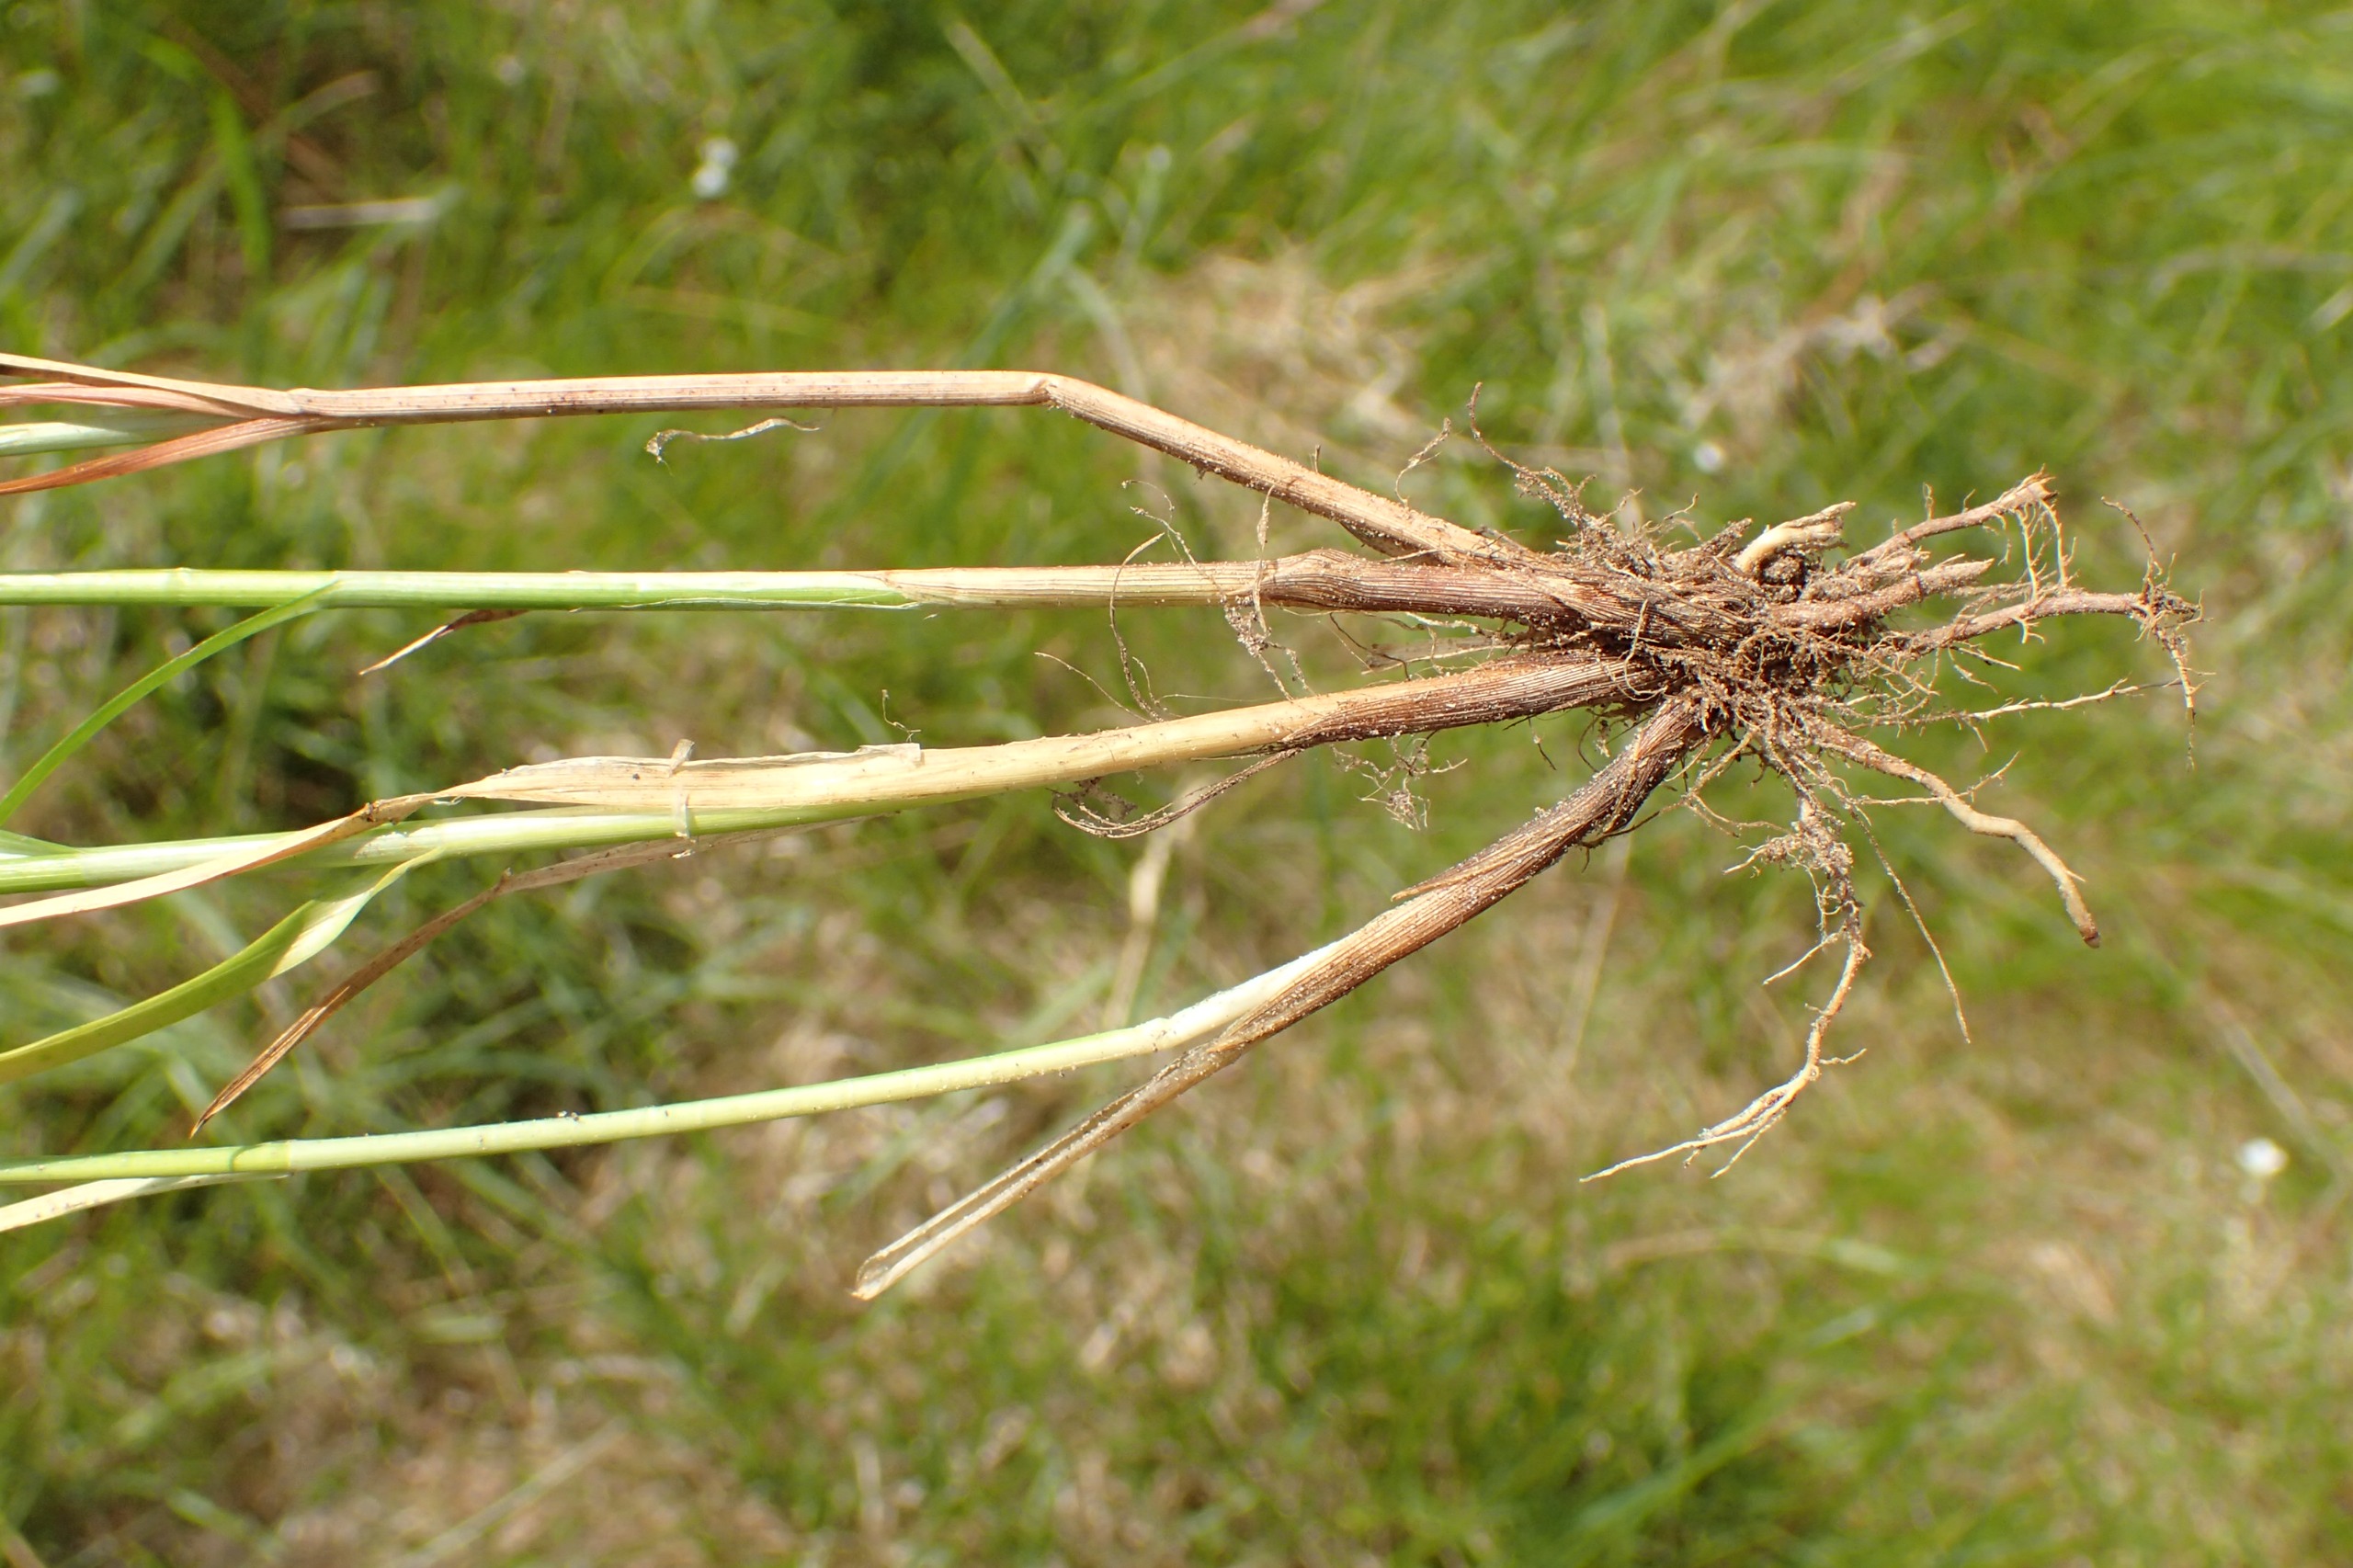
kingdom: Plantae
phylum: Tracheophyta
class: Liliopsida
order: Poales
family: Cyperaceae
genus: Carex
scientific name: Carex pairae
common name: Pigget star
